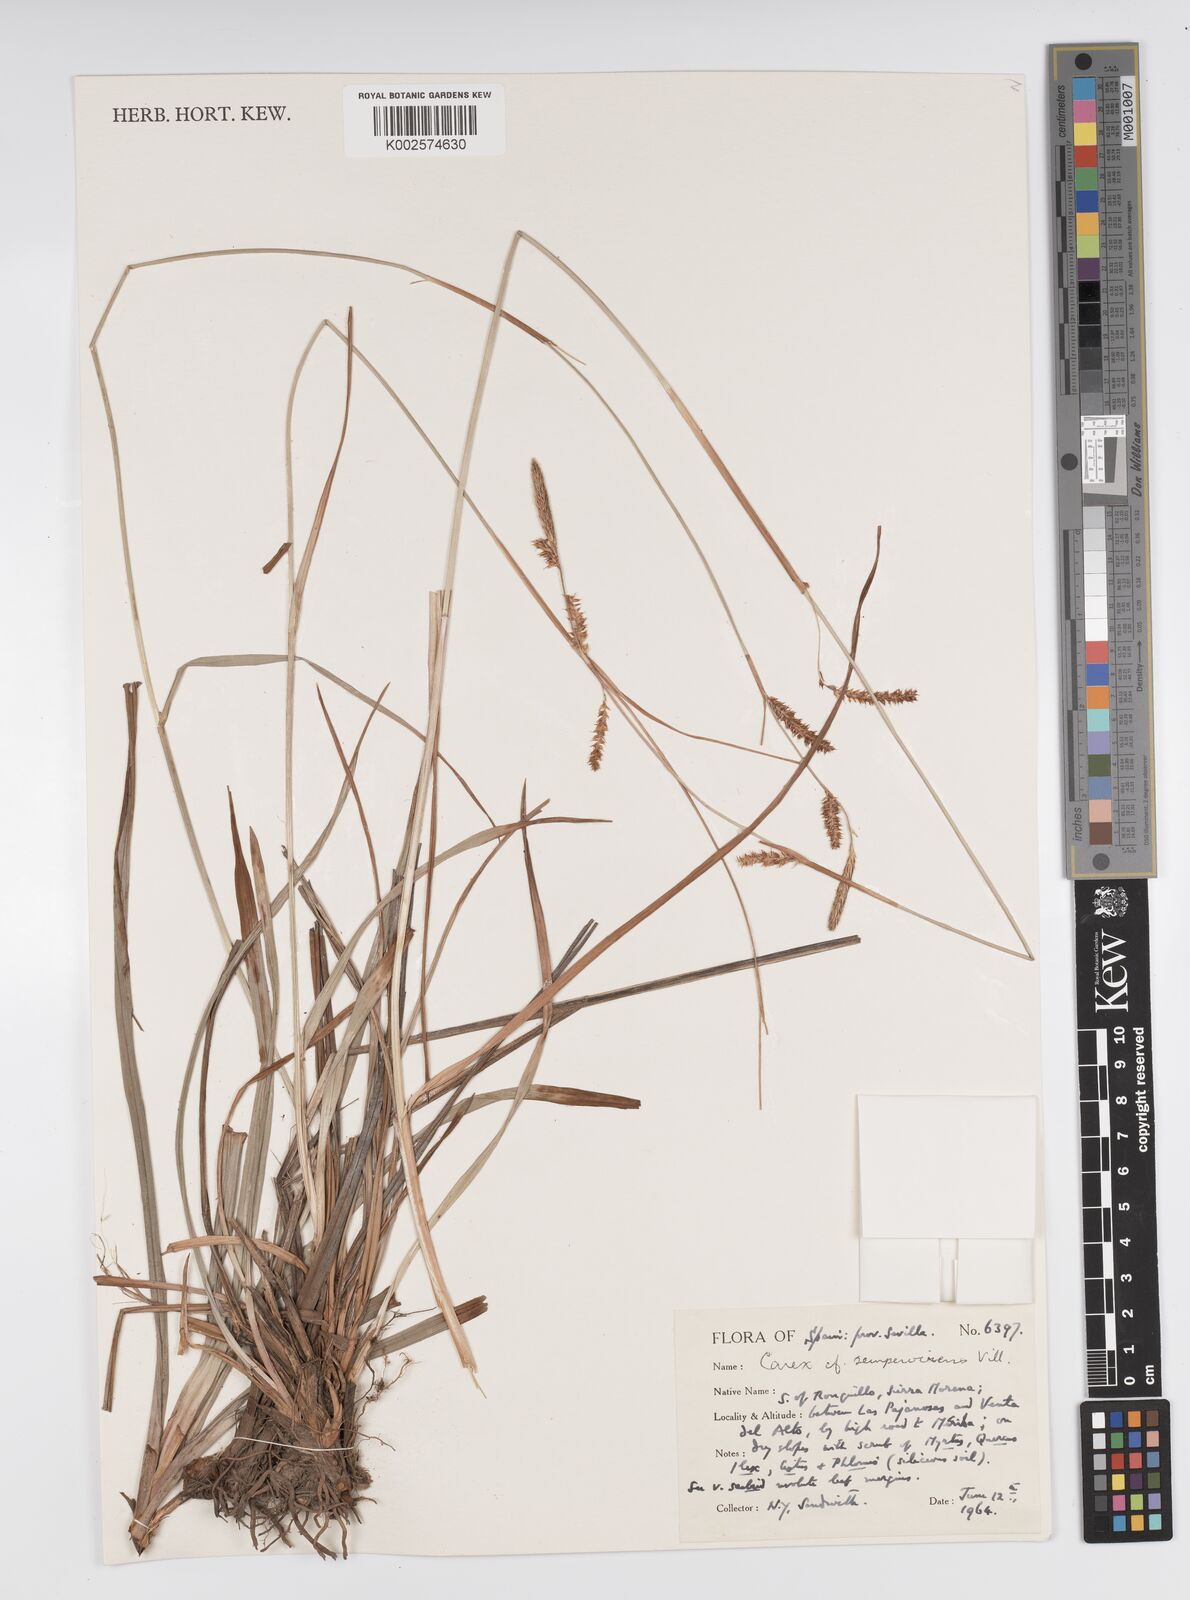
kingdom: Plantae
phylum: Tracheophyta
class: Liliopsida
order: Poales
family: Cyperaceae
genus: Carex
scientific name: Carex sempervirens
